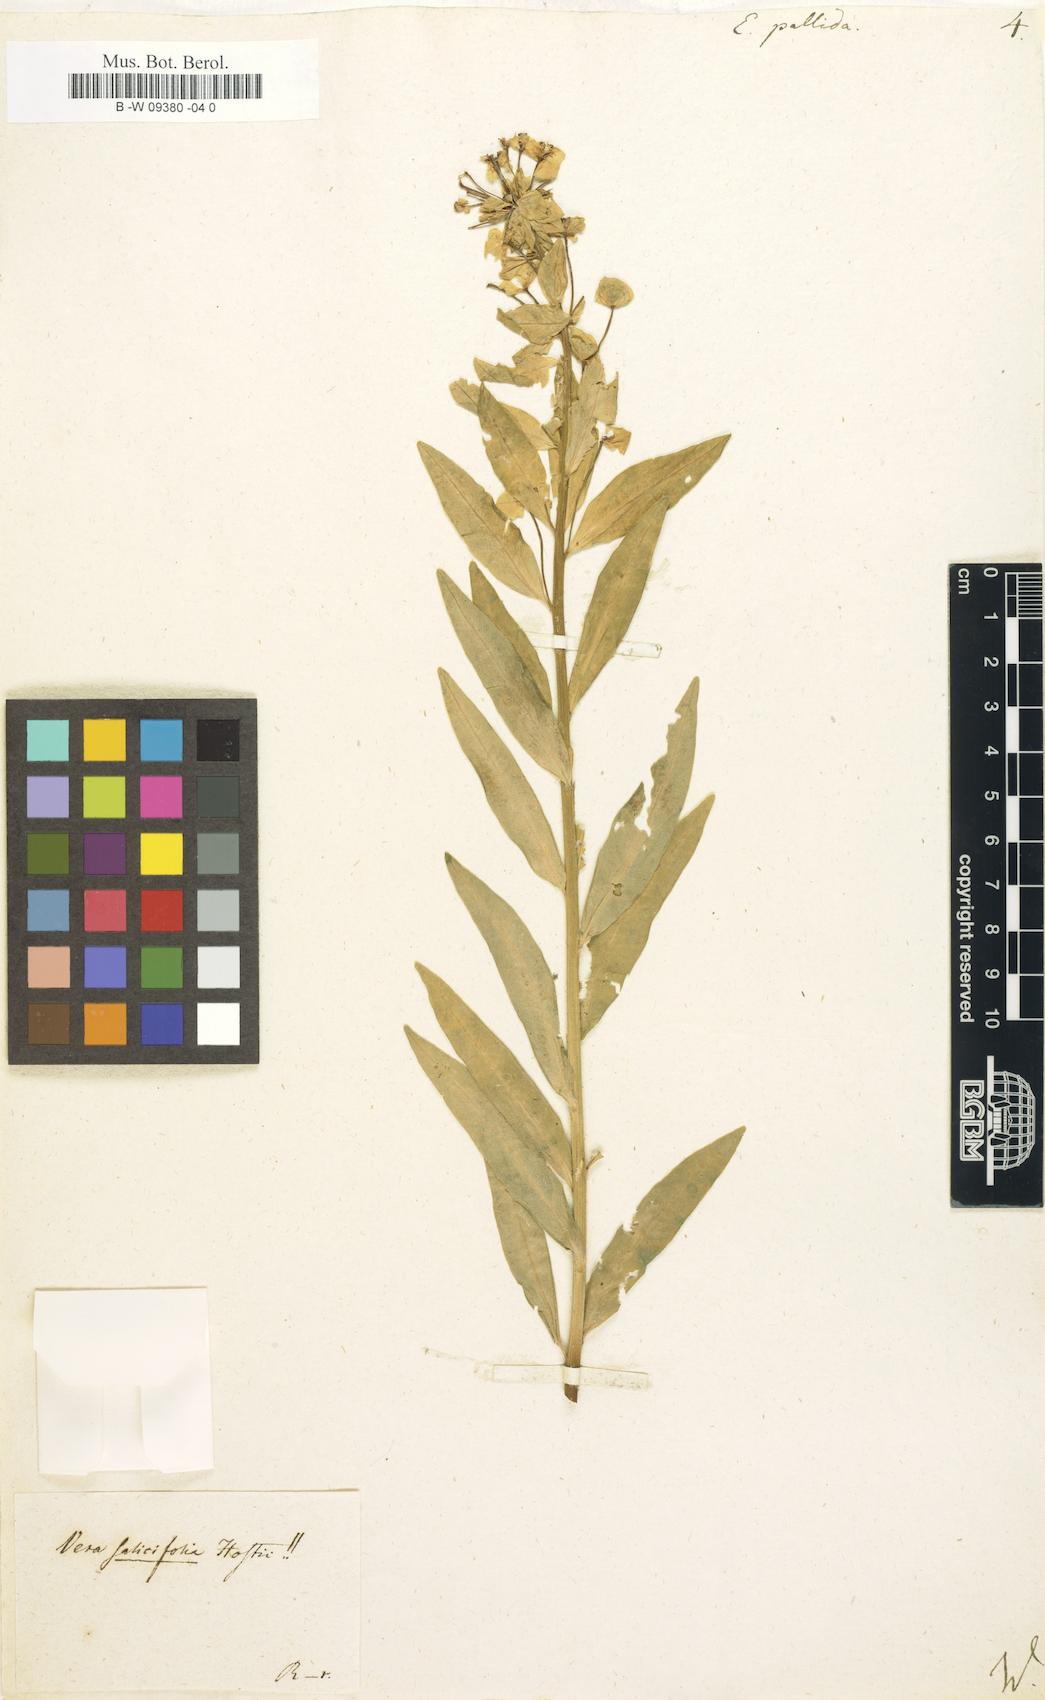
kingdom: Plantae
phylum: Tracheophyta
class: Magnoliopsida
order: Malpighiales
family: Euphorbiaceae
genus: Euphorbia
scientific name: Euphorbia salicifolia
